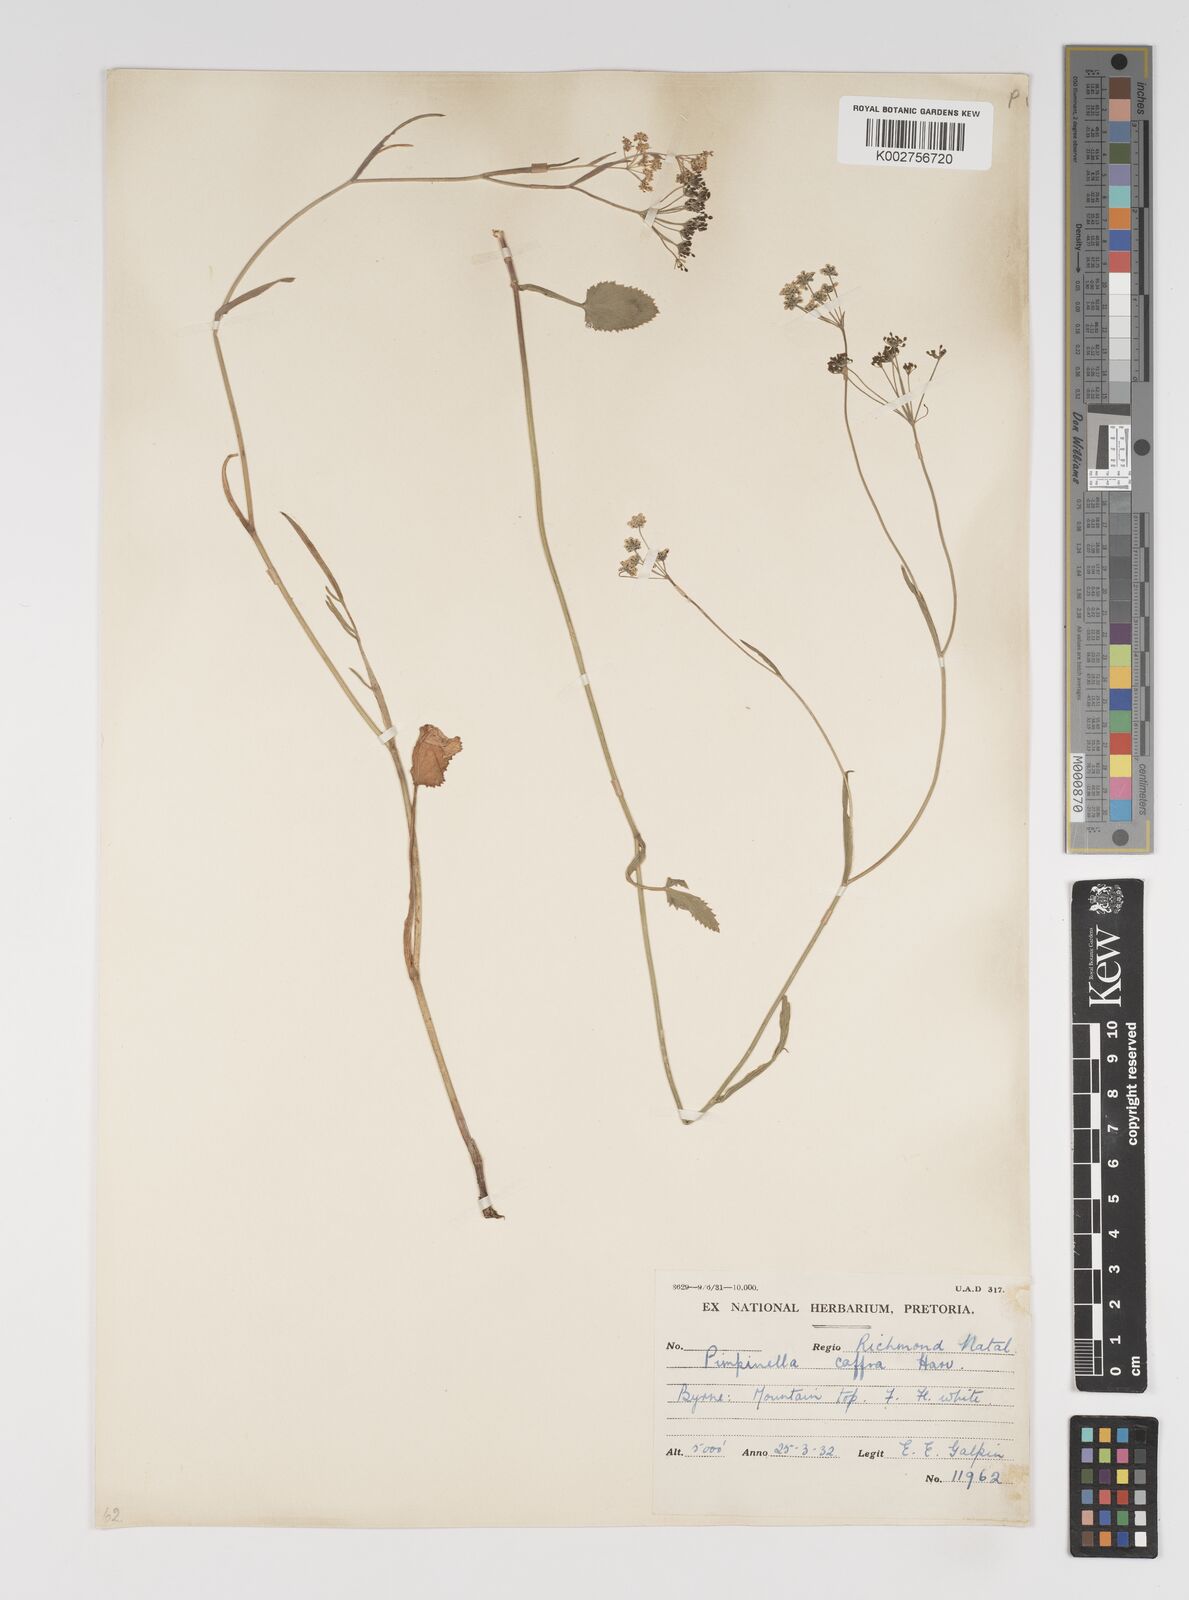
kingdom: Plantae
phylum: Tracheophyta
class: Magnoliopsida
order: Apiales
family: Apiaceae
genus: Pimpinella
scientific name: Pimpinella
